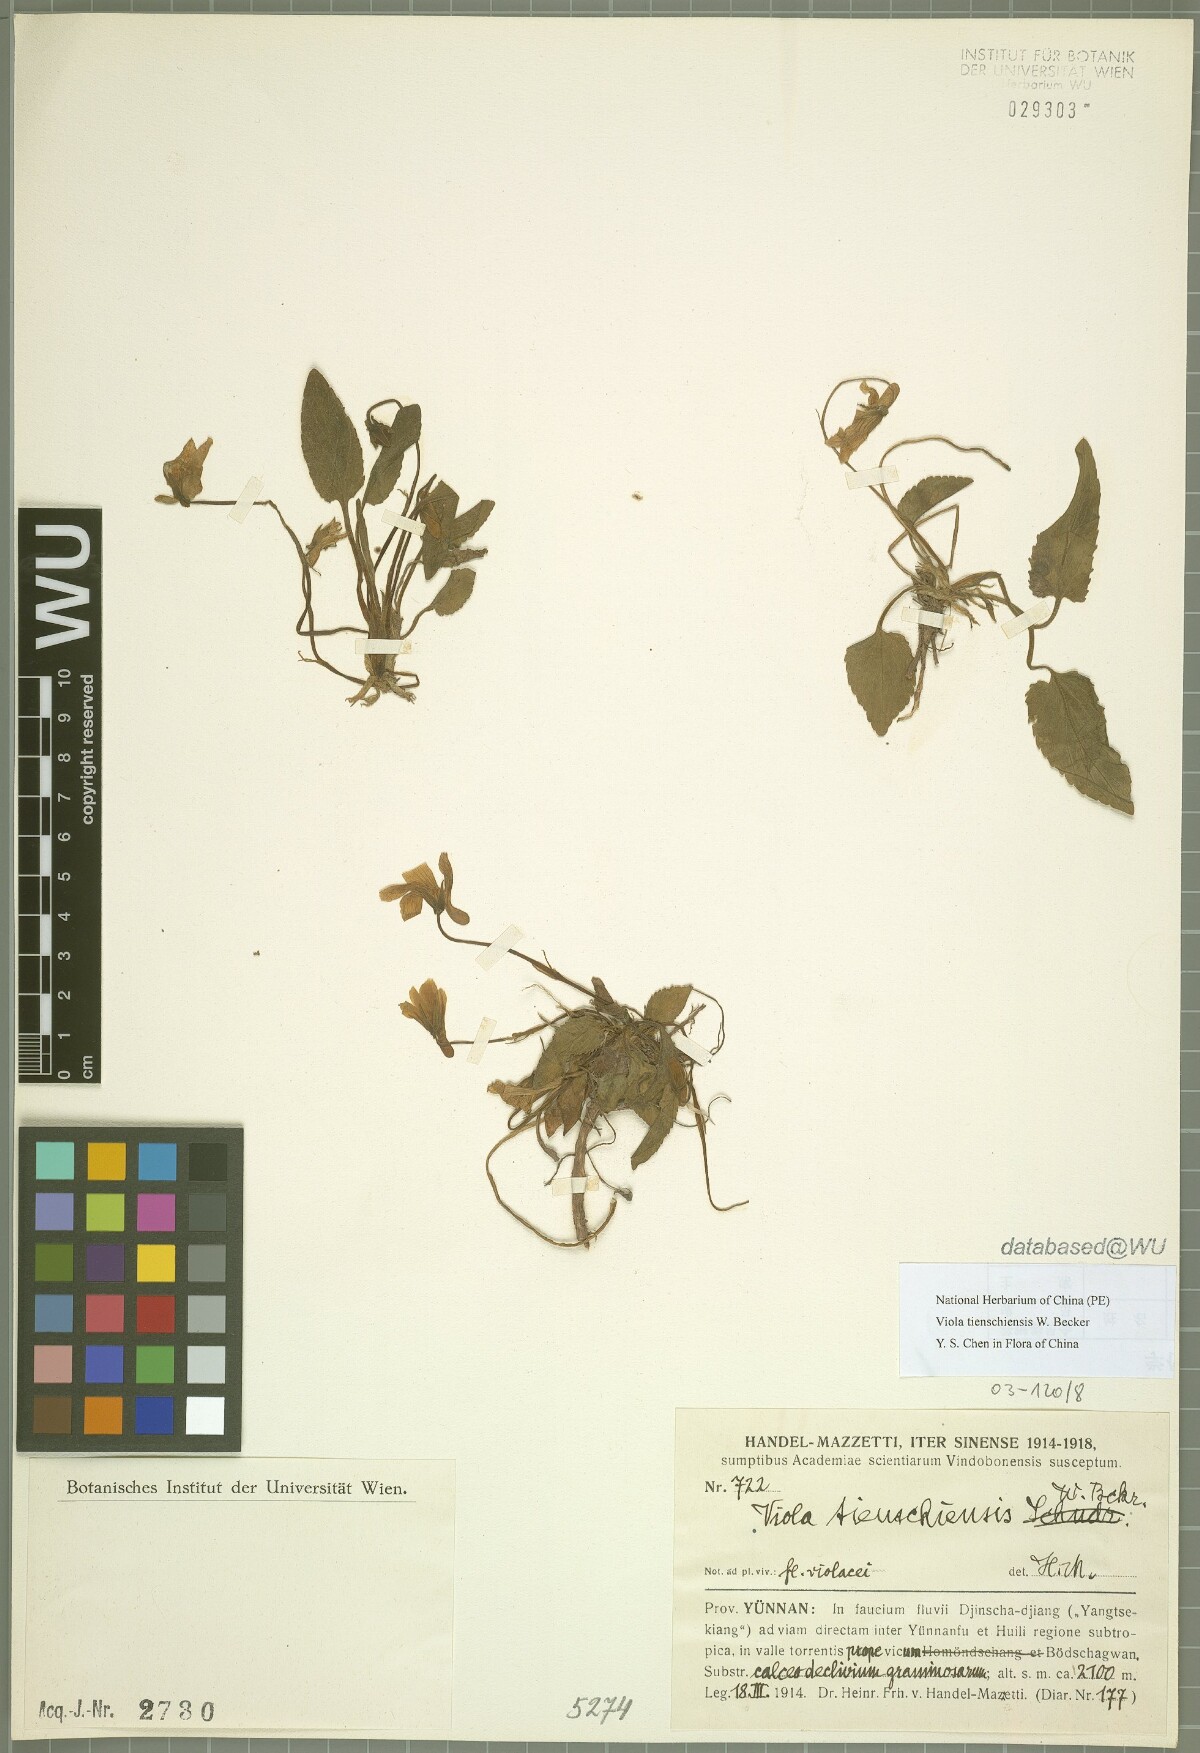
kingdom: Plantae
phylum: Tracheophyta
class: Magnoliopsida
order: Malpighiales
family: Violaceae
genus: Viola
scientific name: Viola tienschiensis
